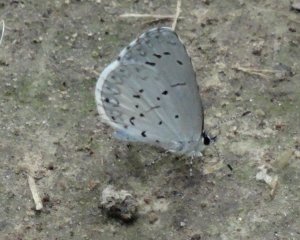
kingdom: Animalia
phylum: Arthropoda
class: Insecta
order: Lepidoptera
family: Lycaenidae
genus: Cyaniris
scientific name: Cyaniris neglecta
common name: Summer Azure
